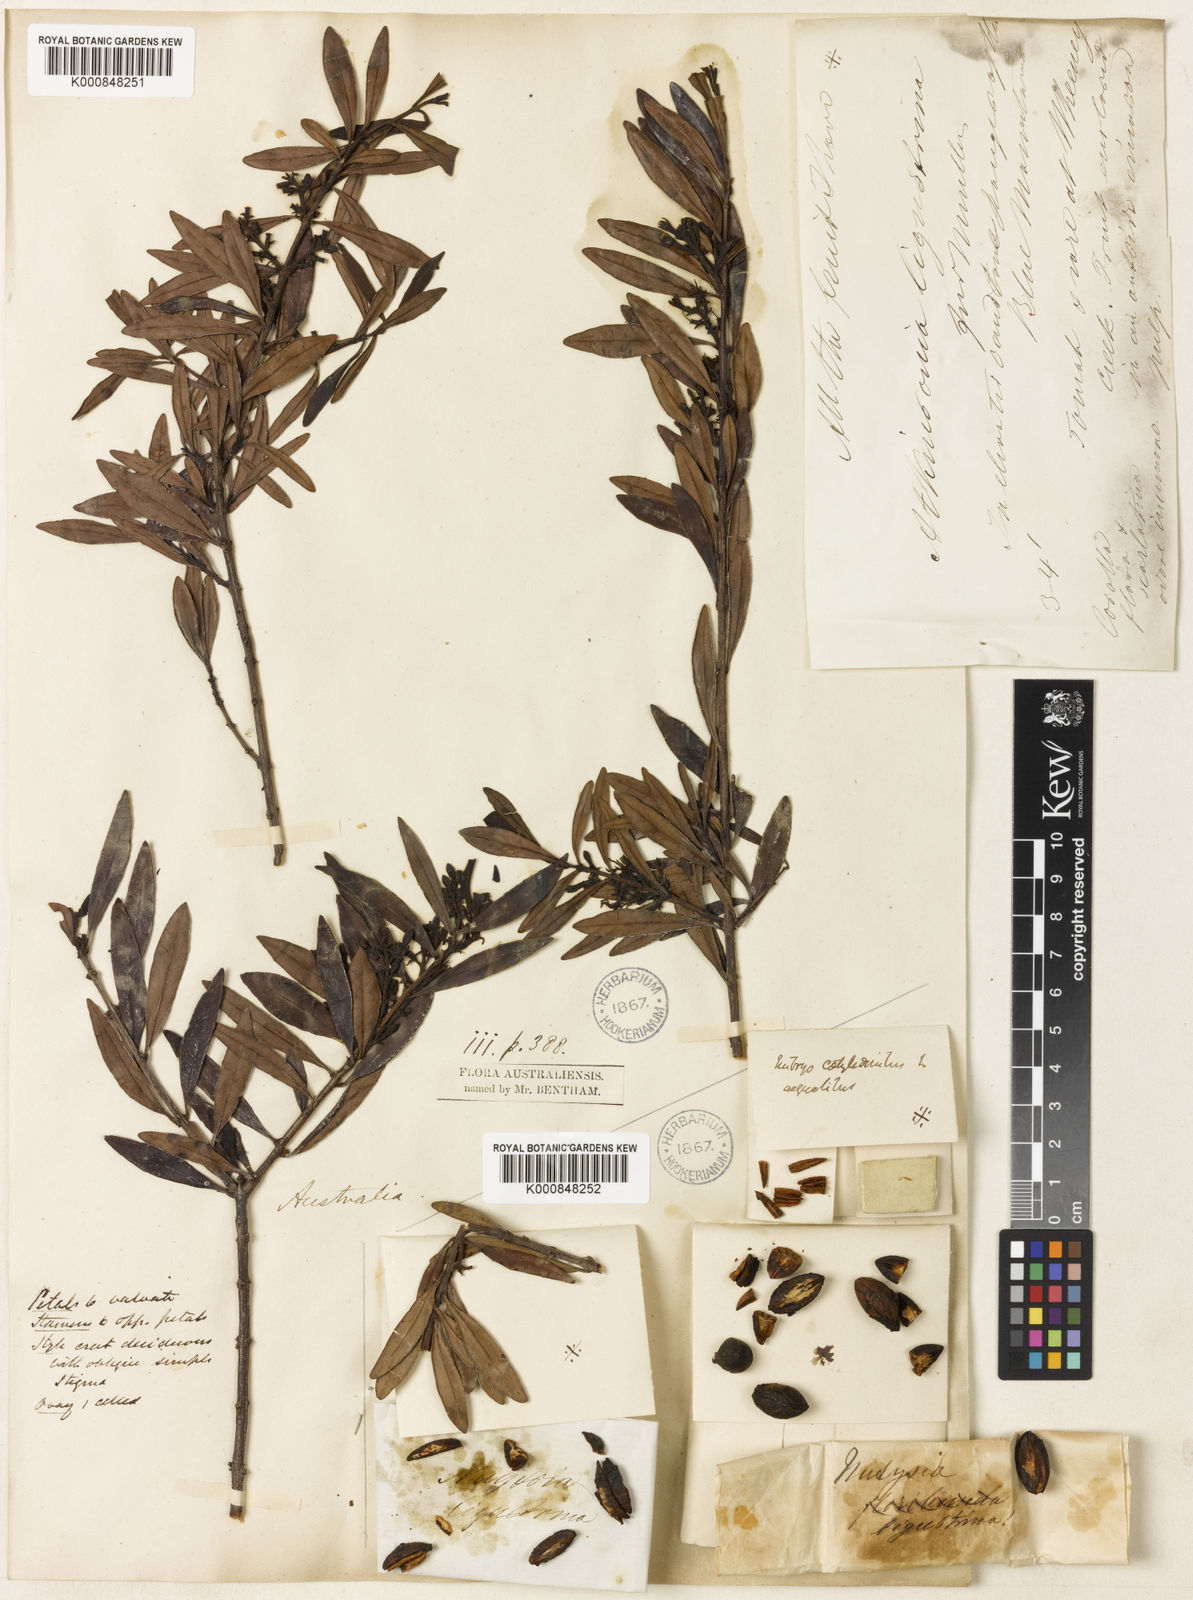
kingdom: Plantae
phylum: Tracheophyta
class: Magnoliopsida
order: Santalales
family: Loranthaceae
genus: Atkinsonia
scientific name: Atkinsonia ligustrina
